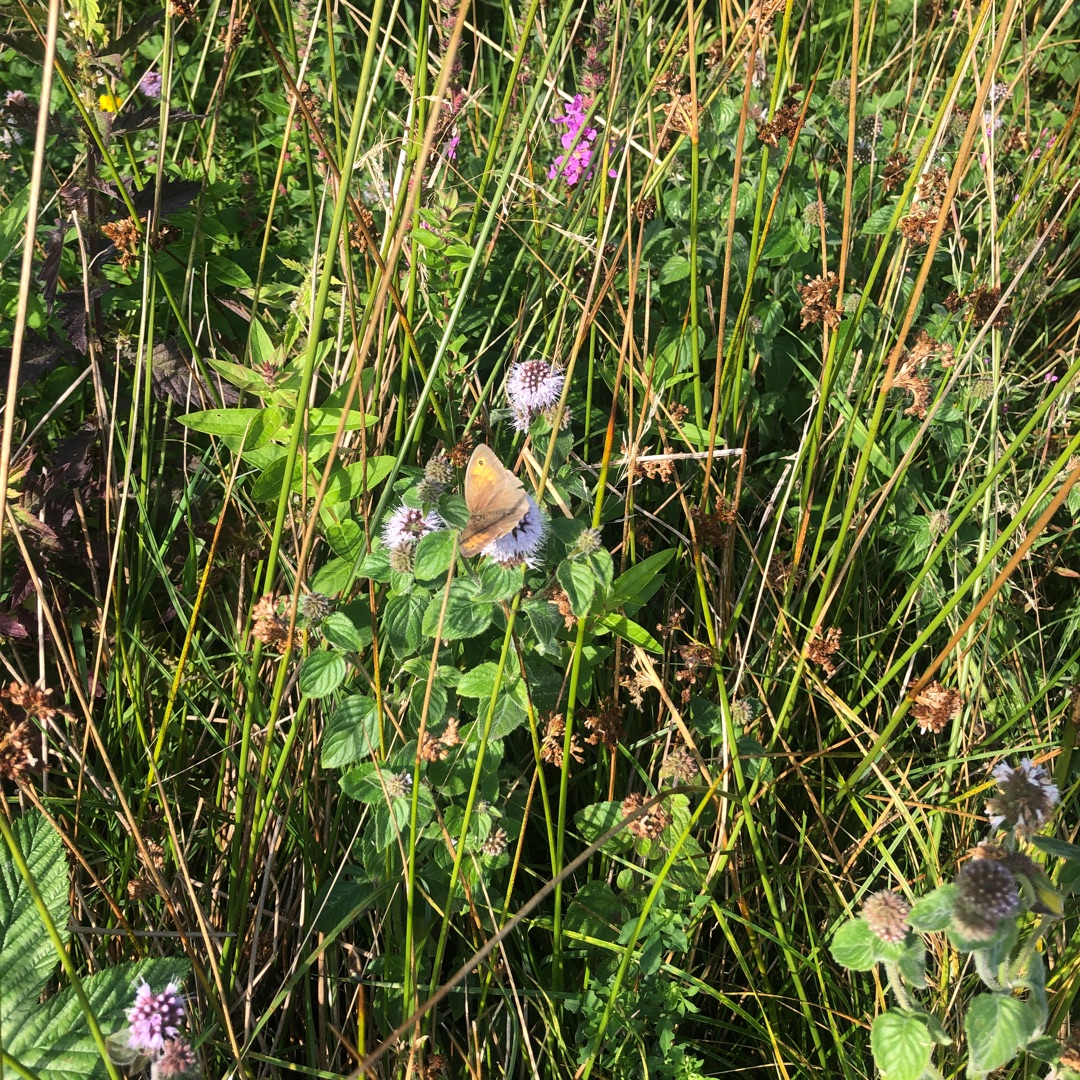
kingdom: Animalia
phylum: Arthropoda
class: Insecta
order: Lepidoptera
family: Nymphalidae
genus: Maniola
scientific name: Maniola jurtina
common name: Græsrandøje
